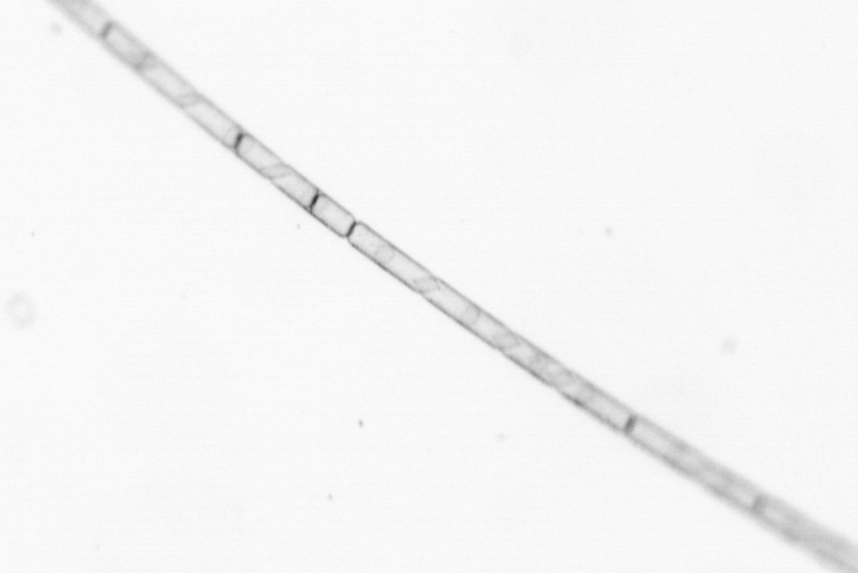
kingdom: Chromista
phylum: Ochrophyta
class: Bacillariophyceae
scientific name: Bacillariophyceae
